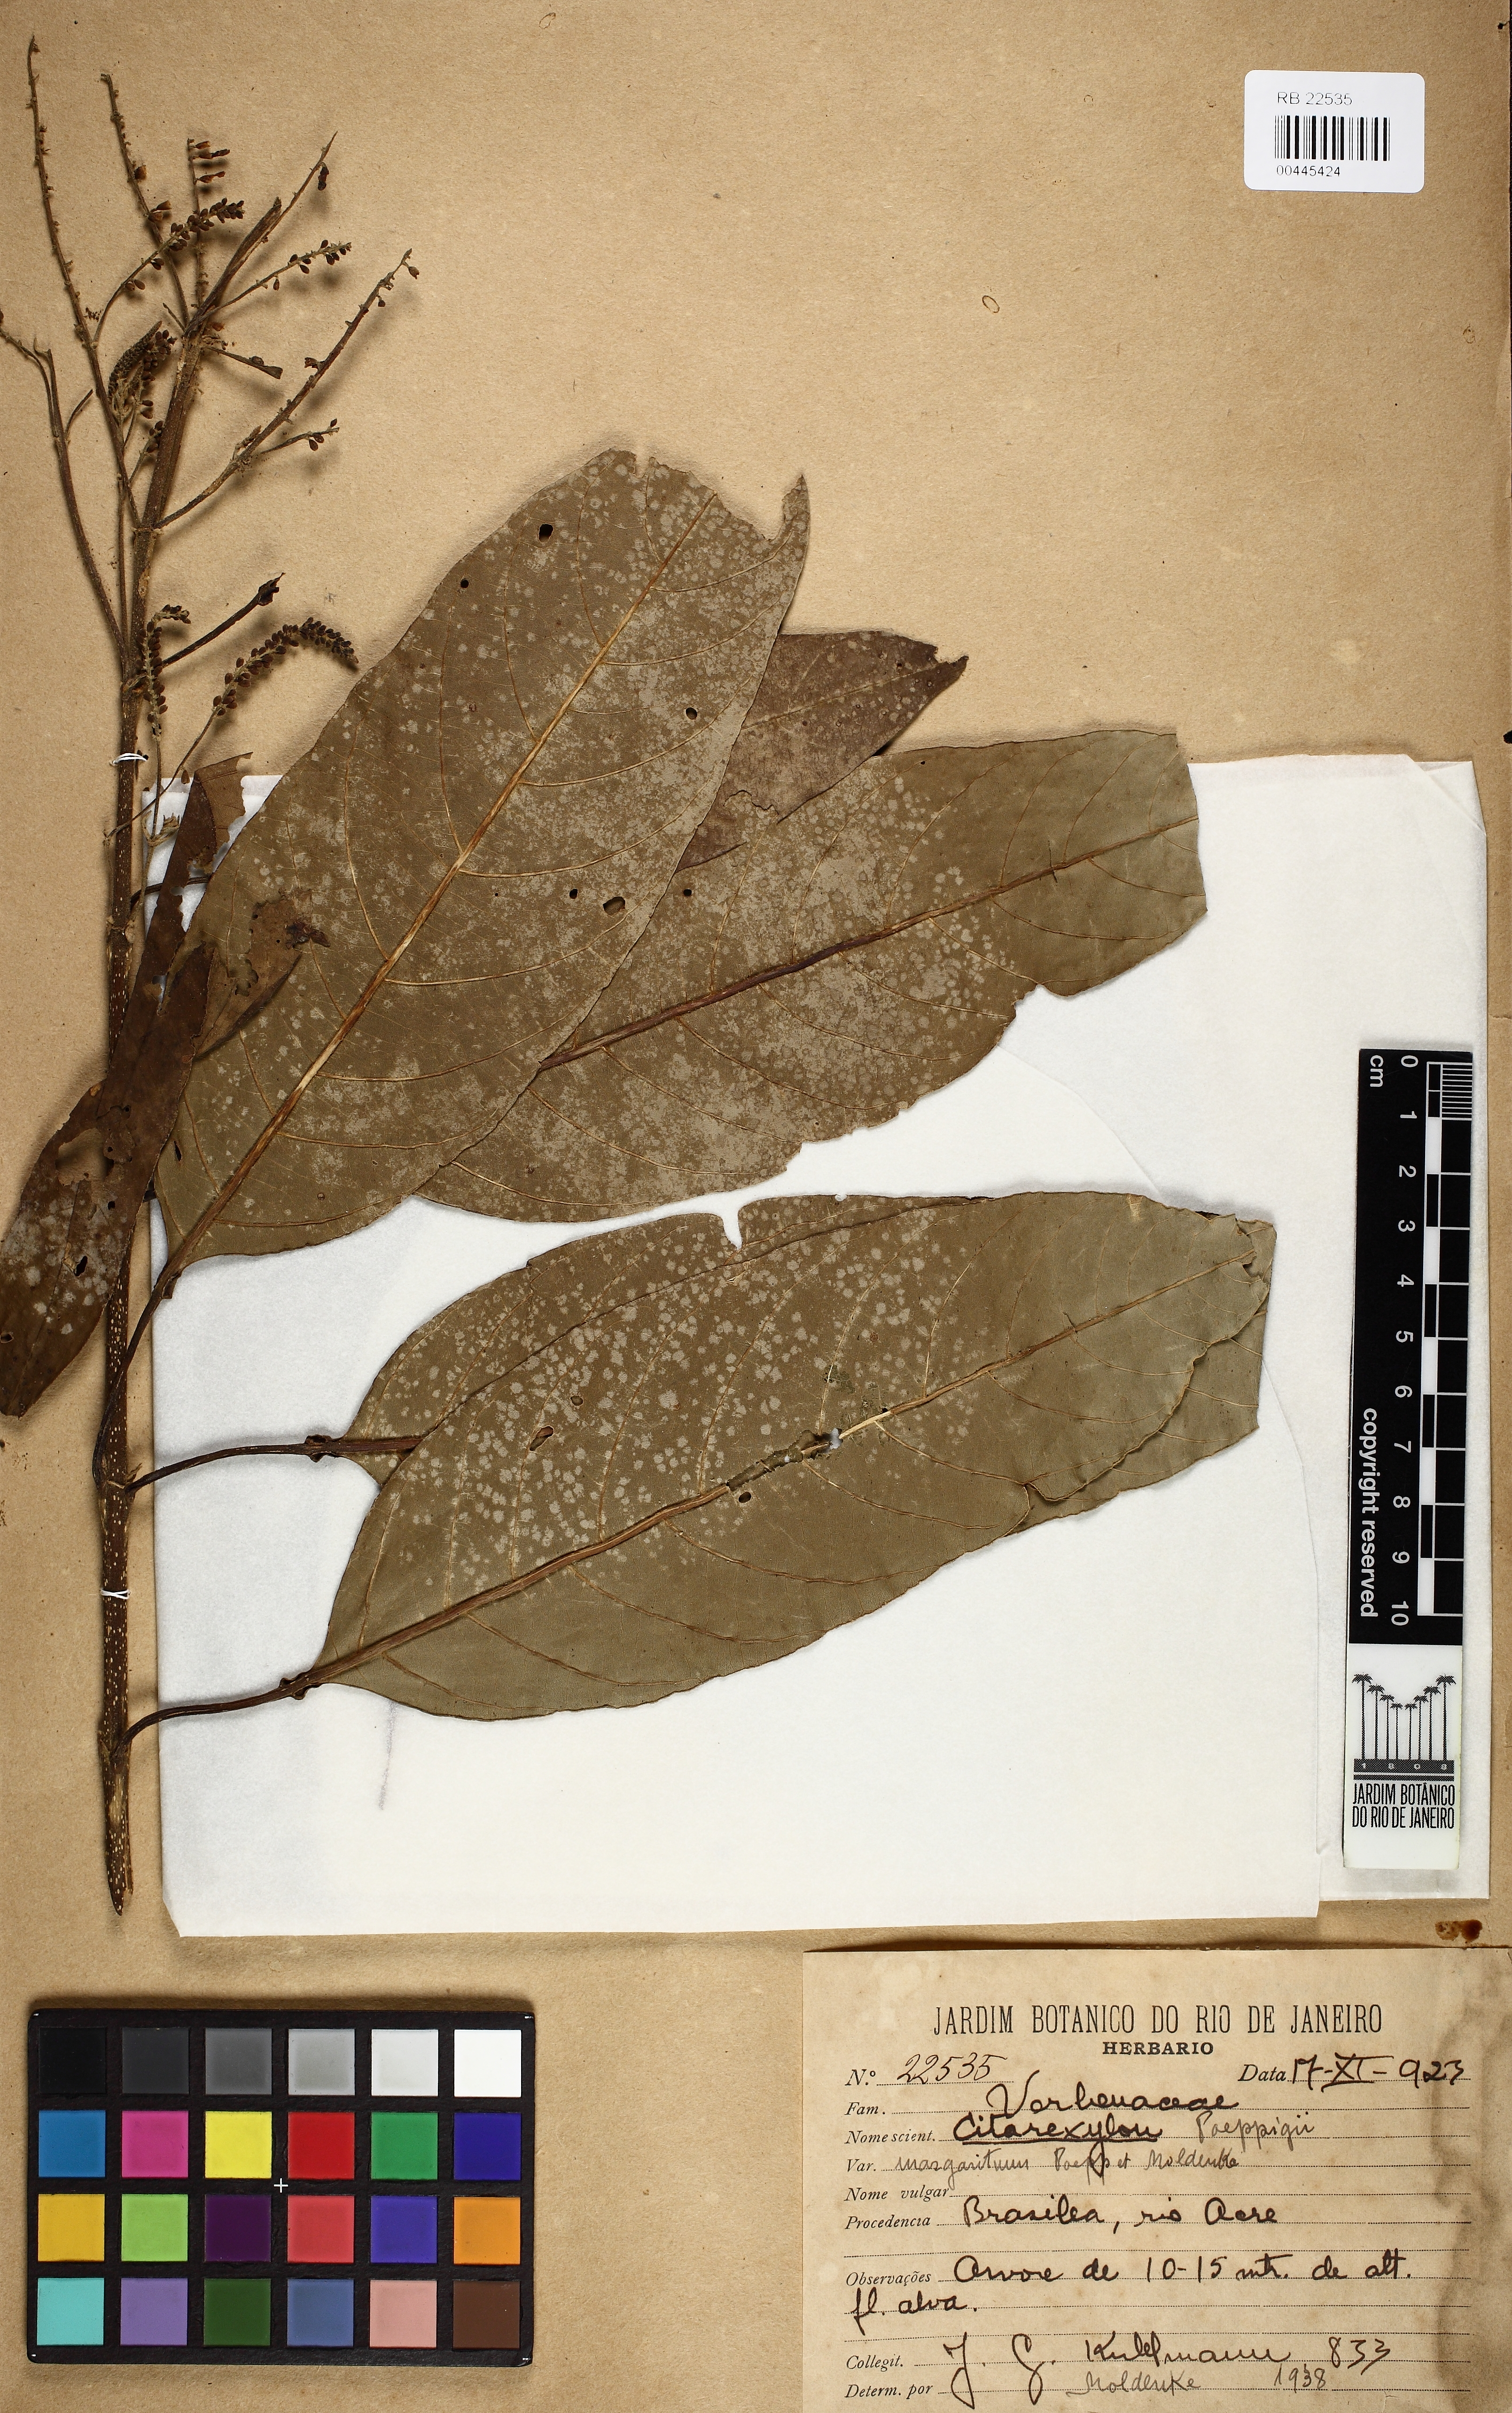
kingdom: Plantae
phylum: Tracheophyta
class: Magnoliopsida
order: Lamiales
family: Verbenaceae
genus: Citharexylum
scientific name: Citharexylum poeppigii
